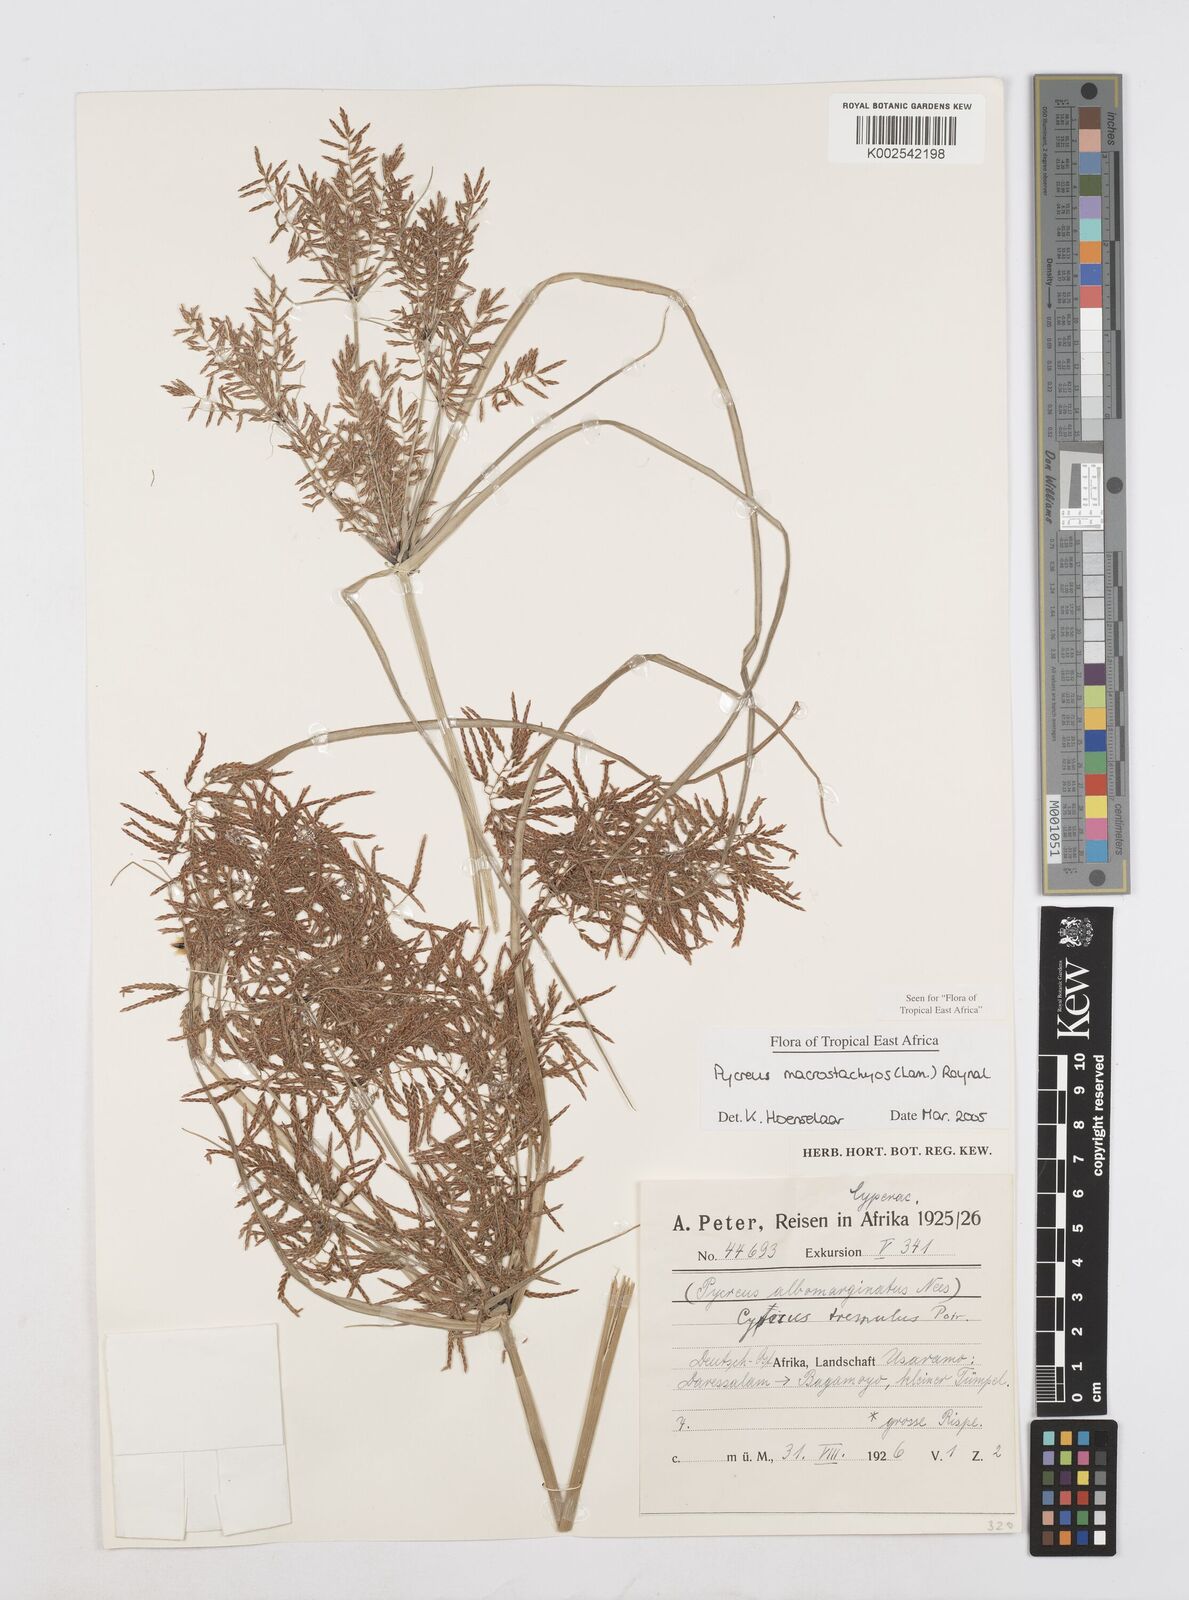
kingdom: Plantae
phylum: Tracheophyta
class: Liliopsida
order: Poales
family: Cyperaceae
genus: Cyperus
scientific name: Cyperus macrostachyos
